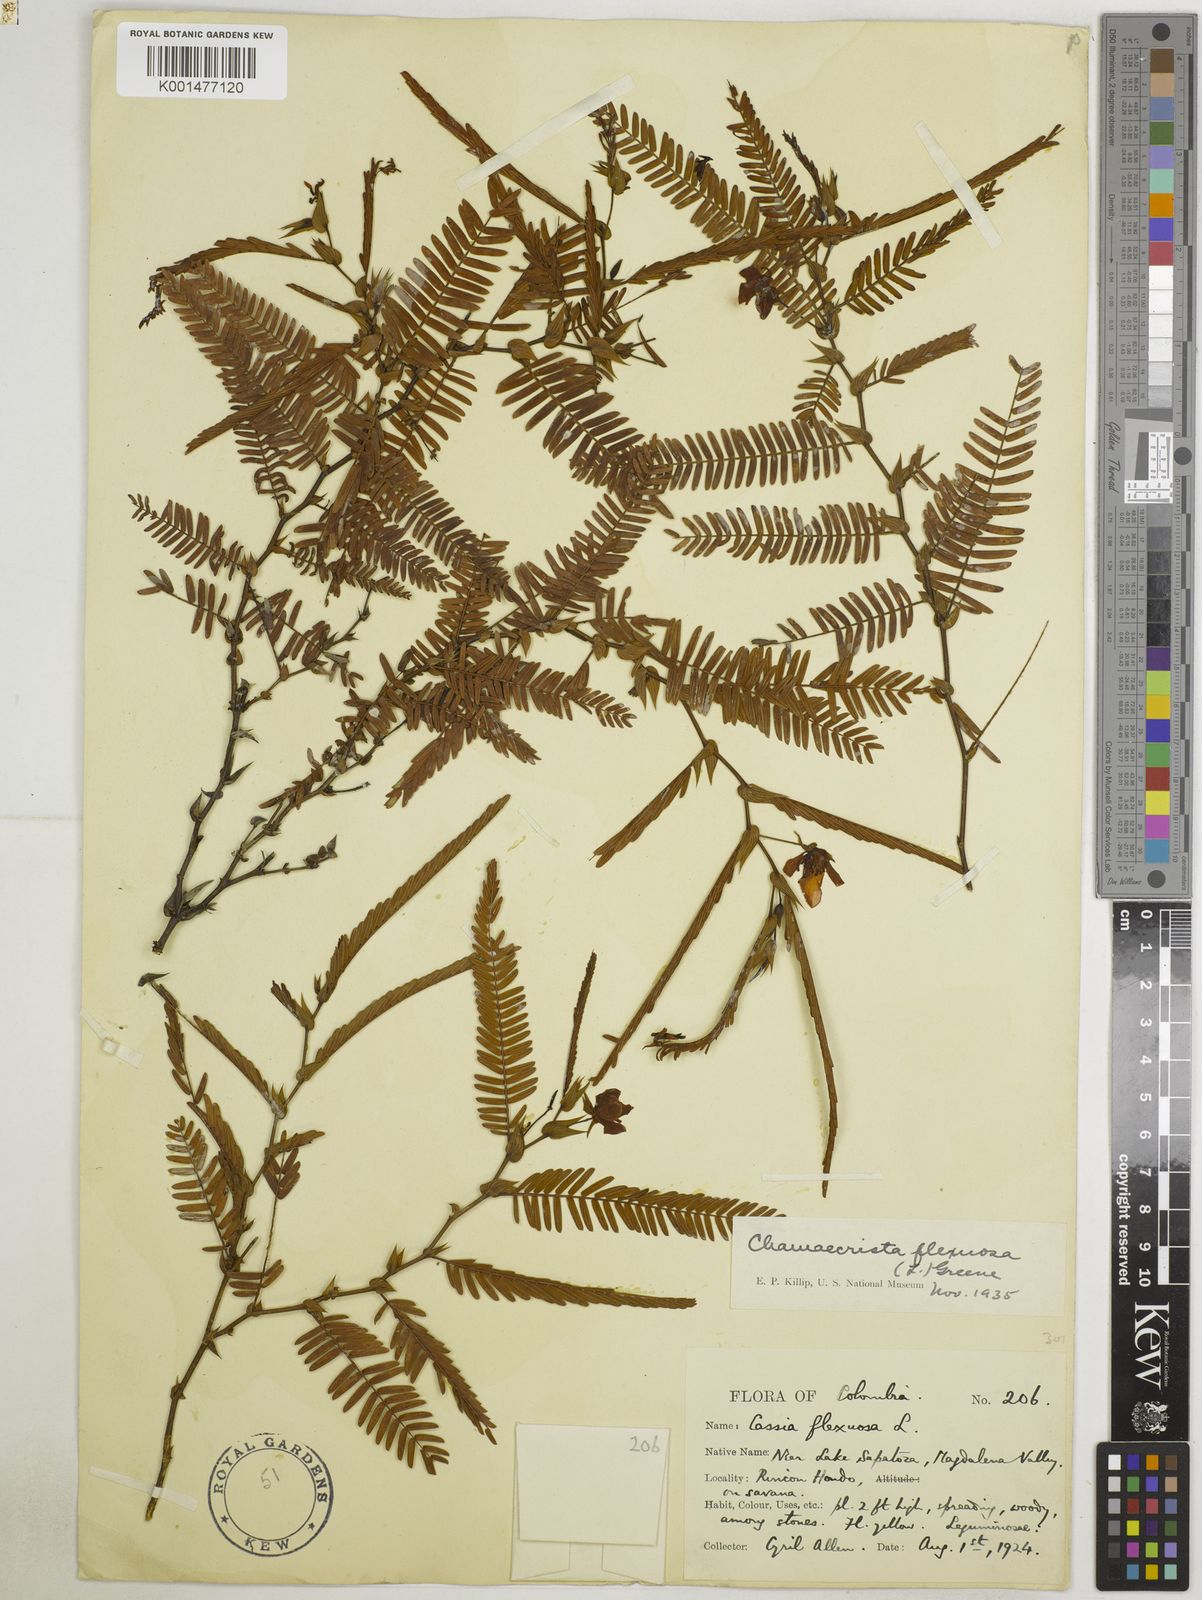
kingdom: Plantae
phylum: Tracheophyta
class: Magnoliopsida
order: Fabales
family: Fabaceae
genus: Chamaecrista
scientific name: Chamaecrista flexuosa
